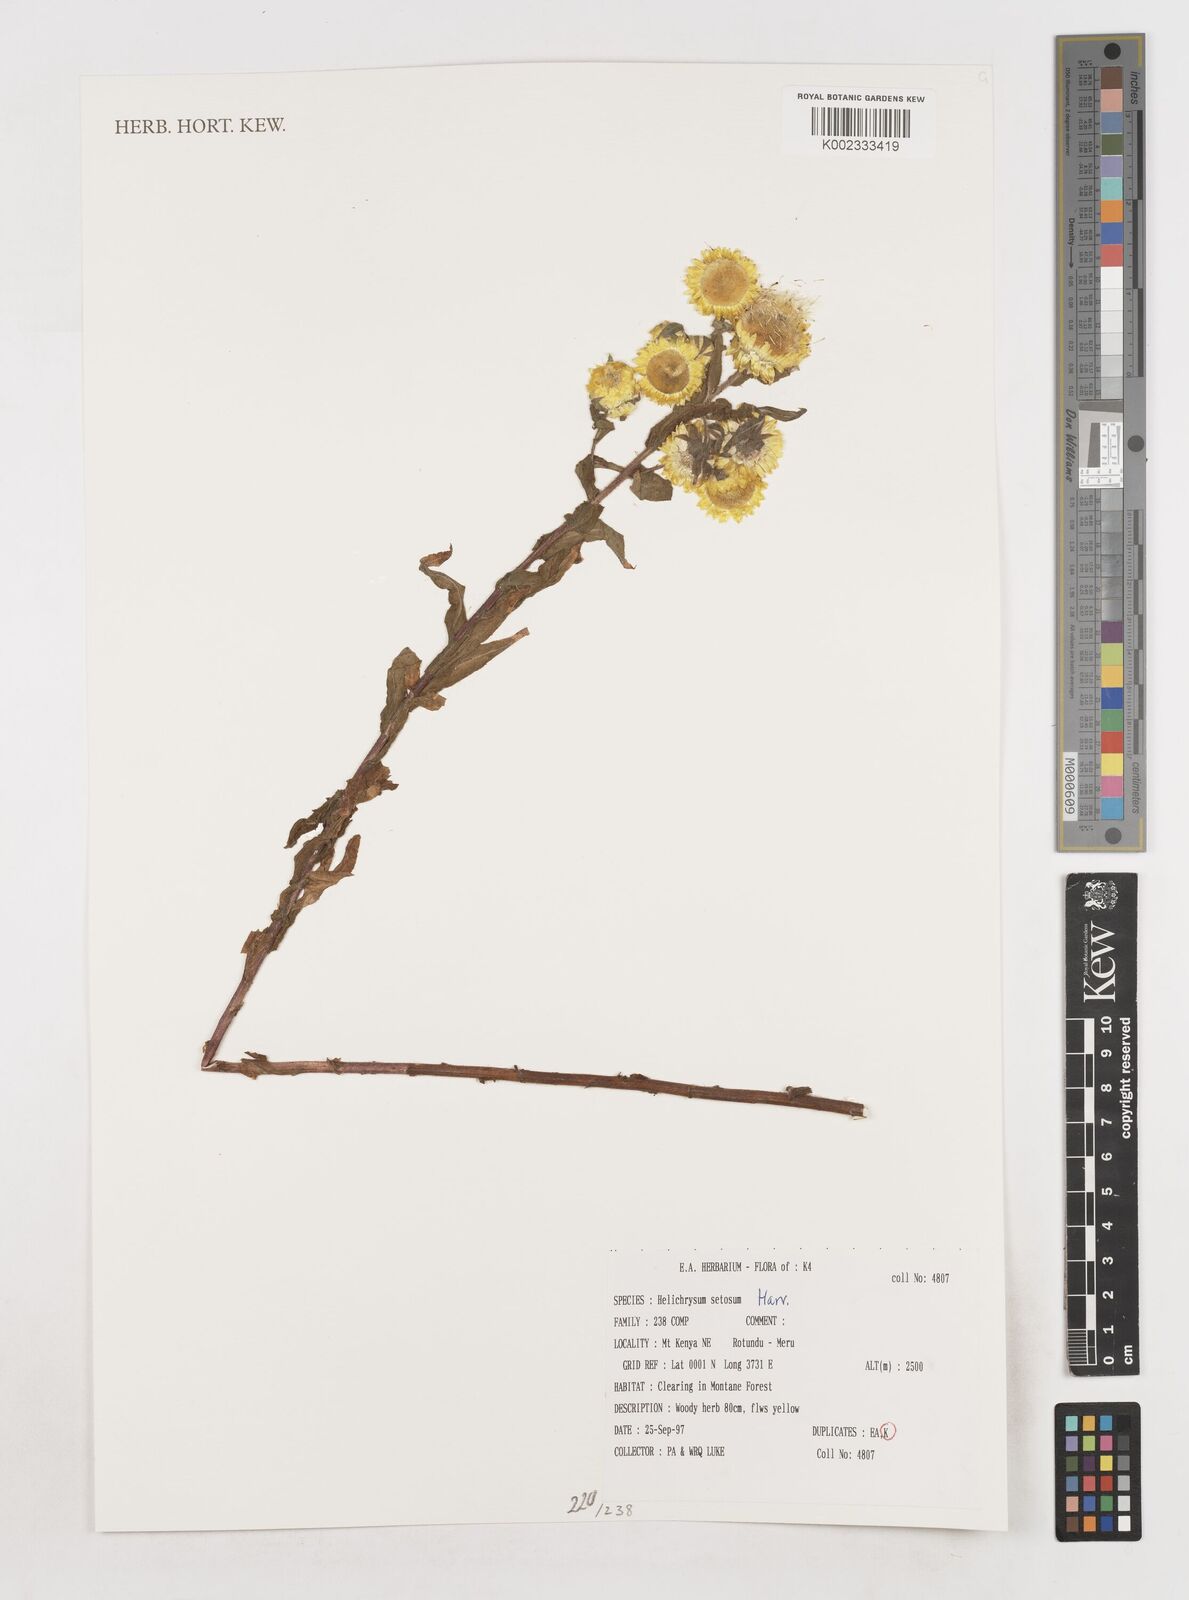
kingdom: Plantae
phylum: Tracheophyta
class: Magnoliopsida
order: Asterales
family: Asteraceae
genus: Helichrysum
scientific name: Helichrysum setosum
